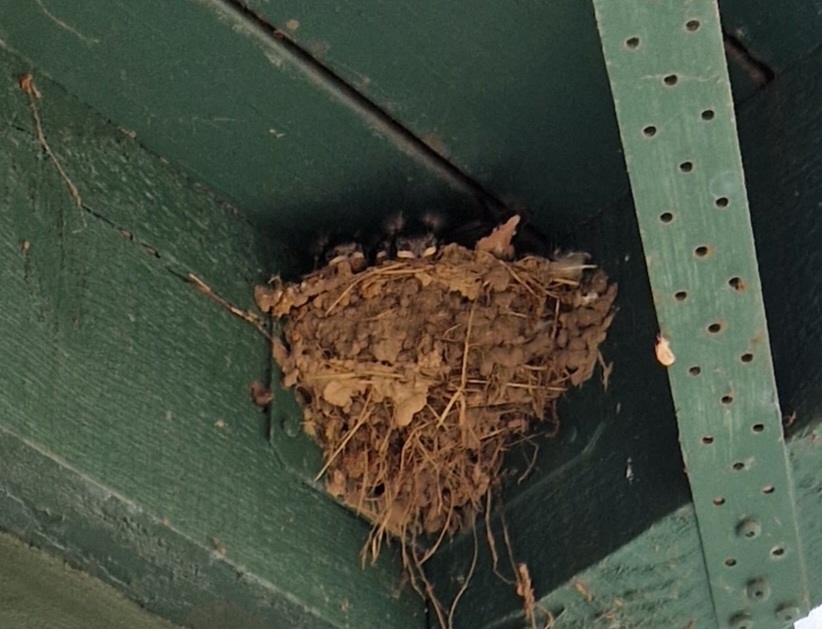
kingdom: Animalia
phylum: Chordata
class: Aves
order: Passeriformes
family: Hirundinidae
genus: Hirundo
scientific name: Hirundo rustica
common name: Landsvale
